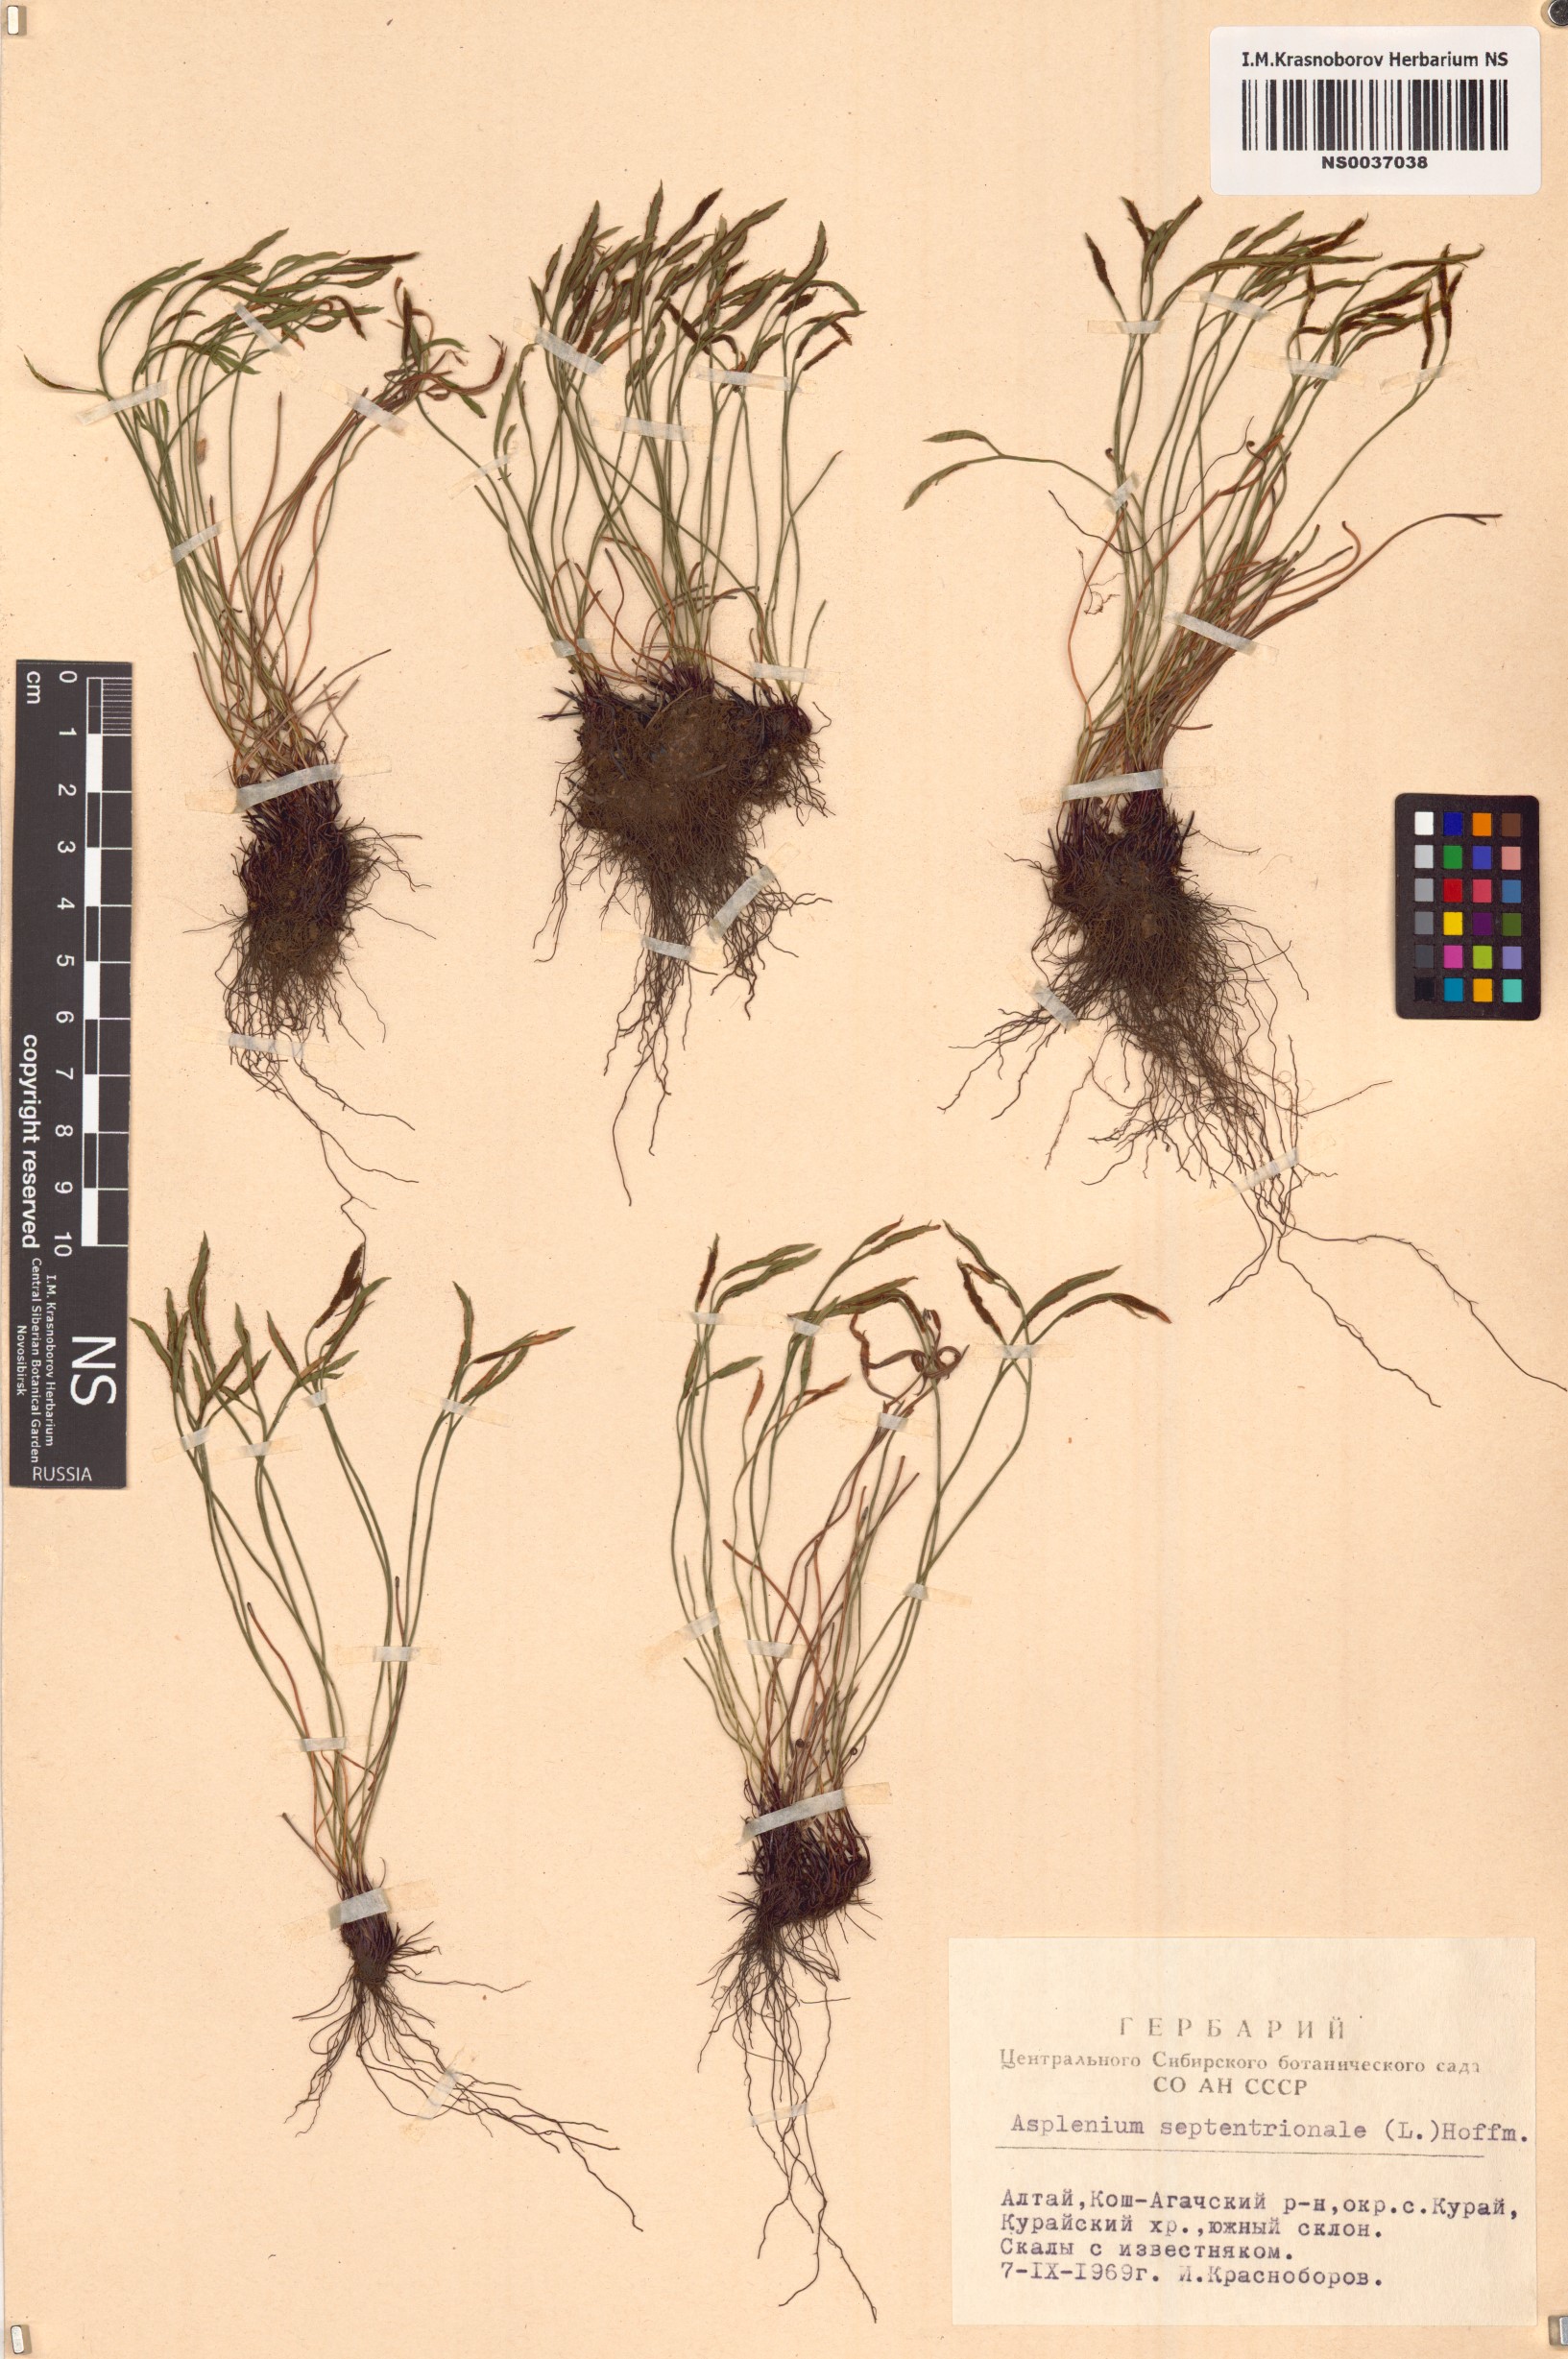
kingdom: Plantae
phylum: Tracheophyta
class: Polypodiopsida
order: Polypodiales
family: Aspleniaceae
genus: Asplenium
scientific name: Asplenium septentrionale
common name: Forked spleenwort
